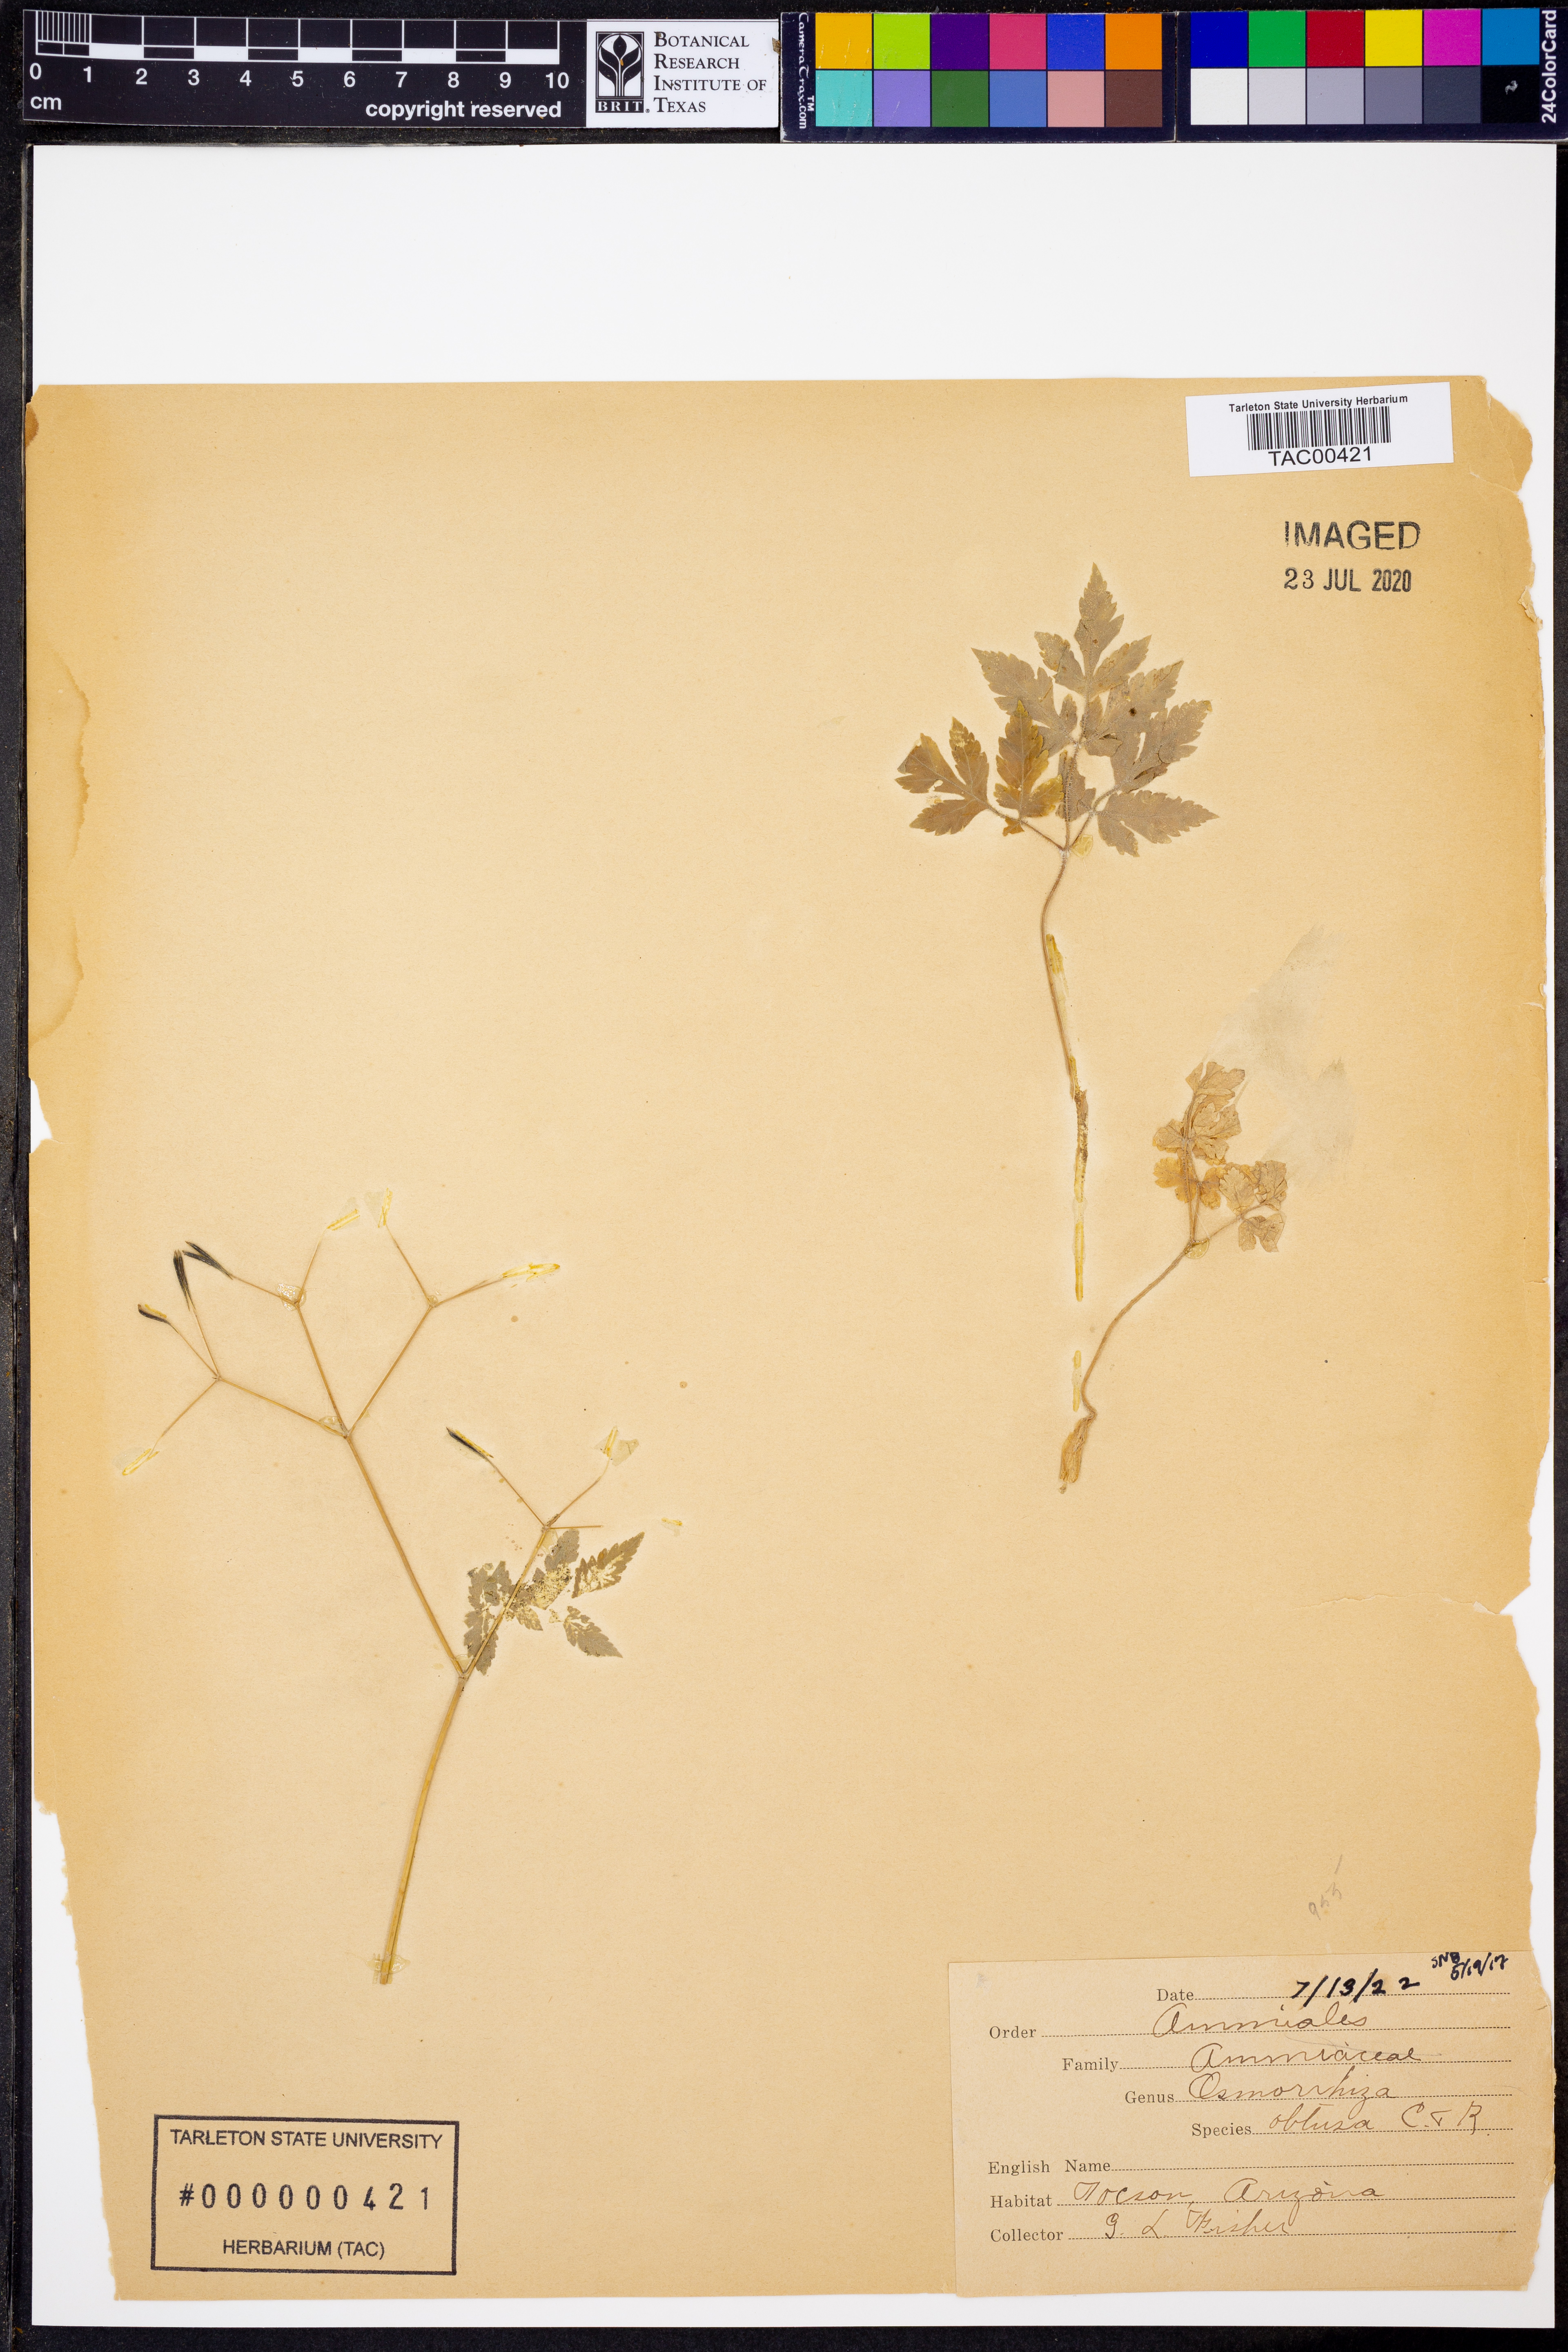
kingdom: Plantae
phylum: Tracheophyta
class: Magnoliopsida
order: Apiales
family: Apiaceae
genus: Osmorhiza
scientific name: Osmorhiza depauperata
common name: Blunt sweet cicely
